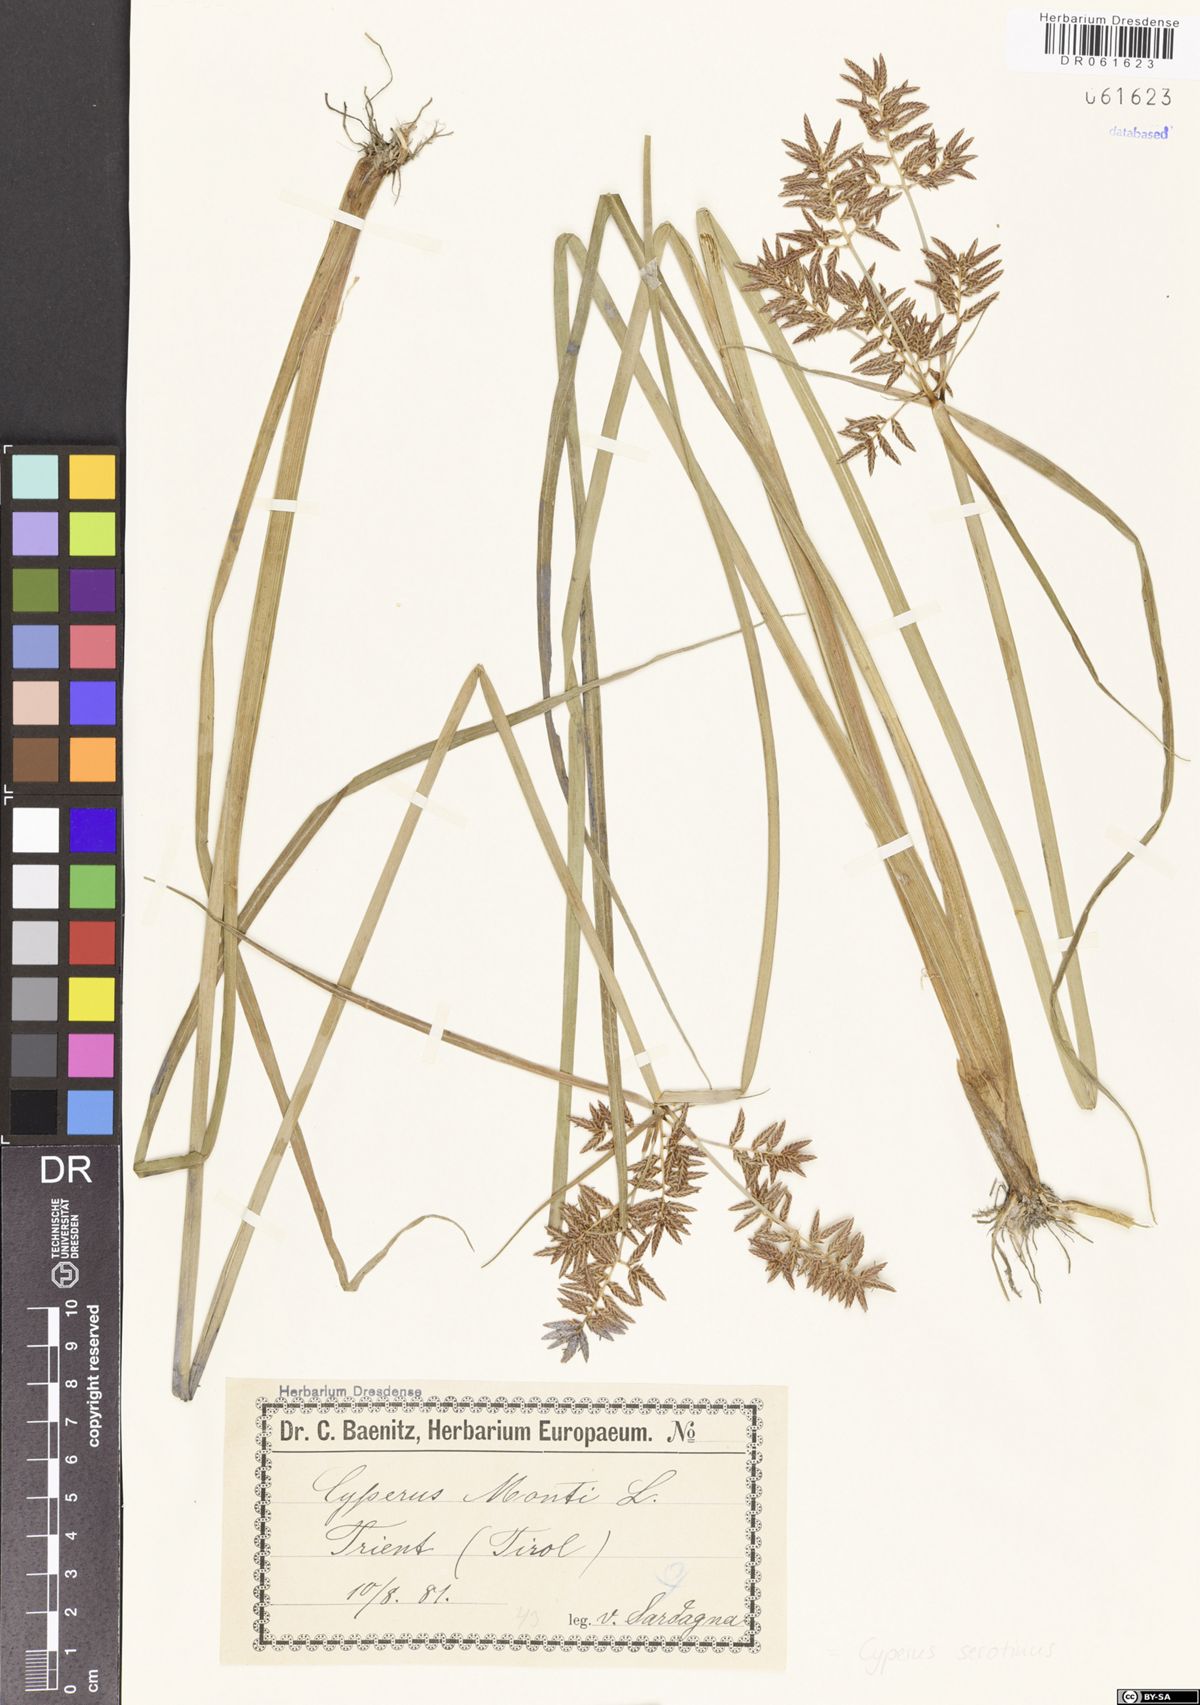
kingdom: Plantae
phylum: Tracheophyta
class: Liliopsida
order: Poales
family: Cyperaceae
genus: Cyperus
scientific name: Cyperus serotinus
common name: Tidalmarsh flatsedge
